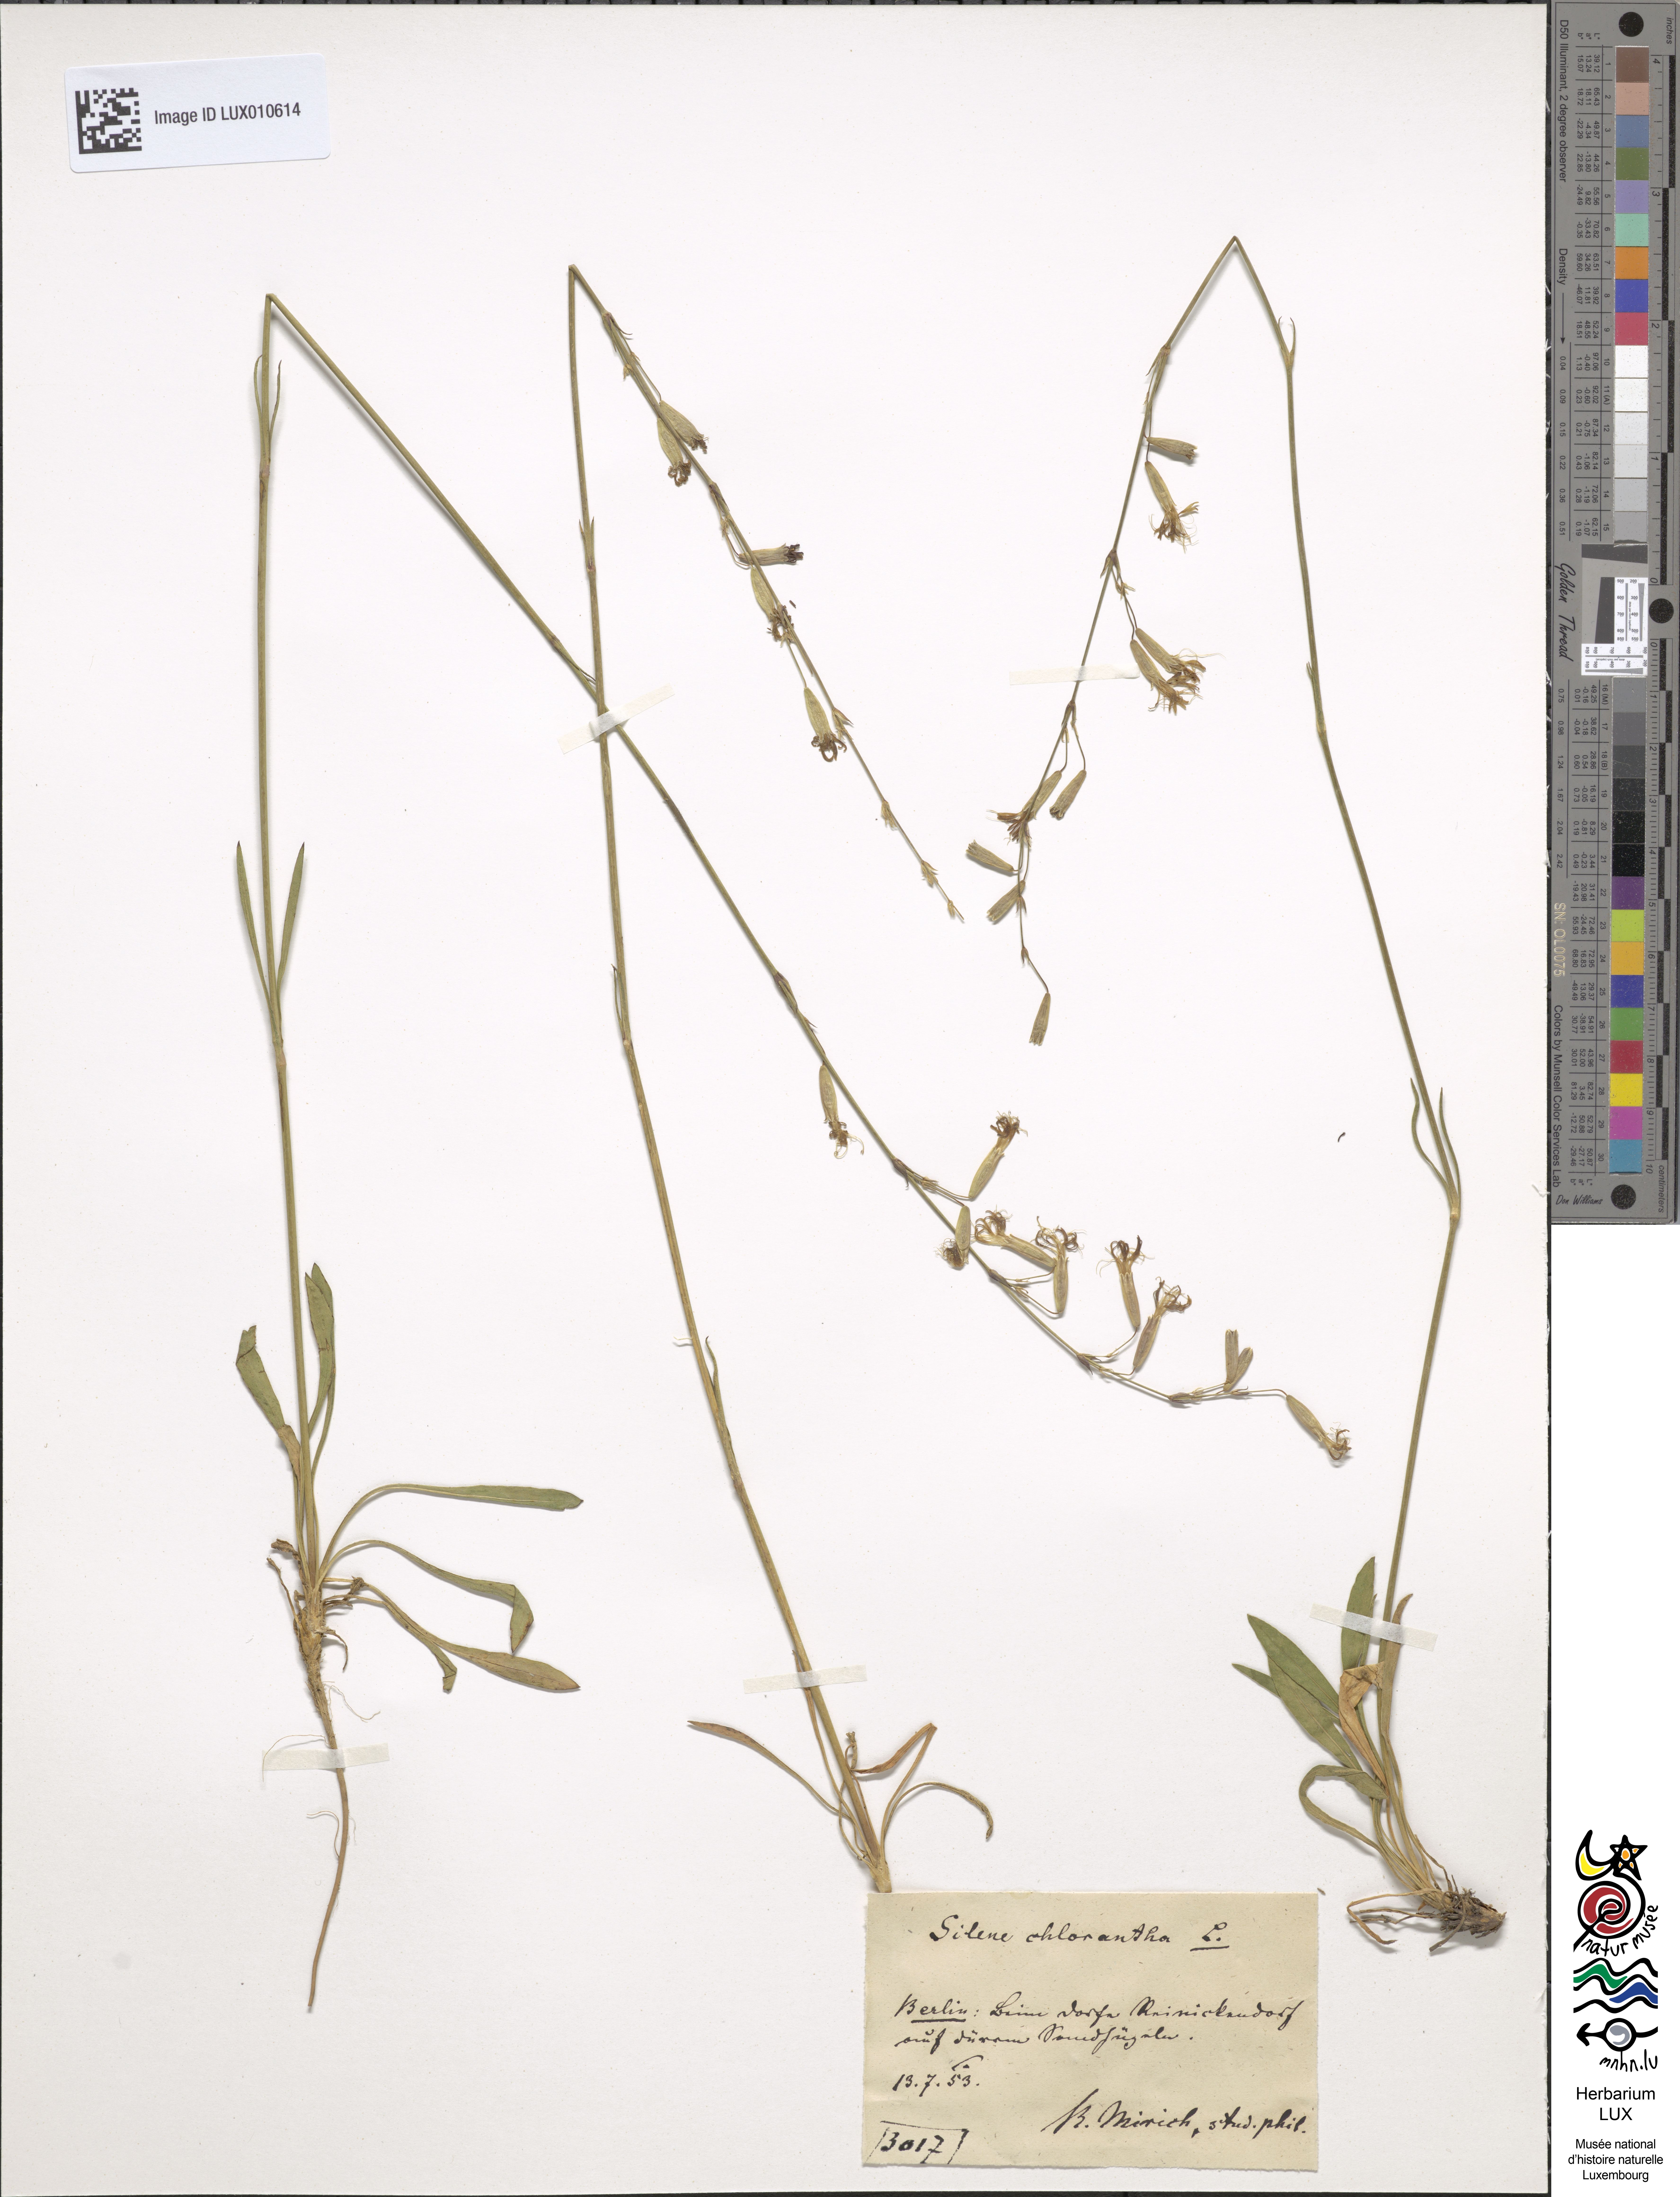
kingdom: Plantae
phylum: Tracheophyta
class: Magnoliopsida
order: Caryophyllales
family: Caryophyllaceae
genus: Silene
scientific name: Silene chlorantha
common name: Yellowgreen catchfly
